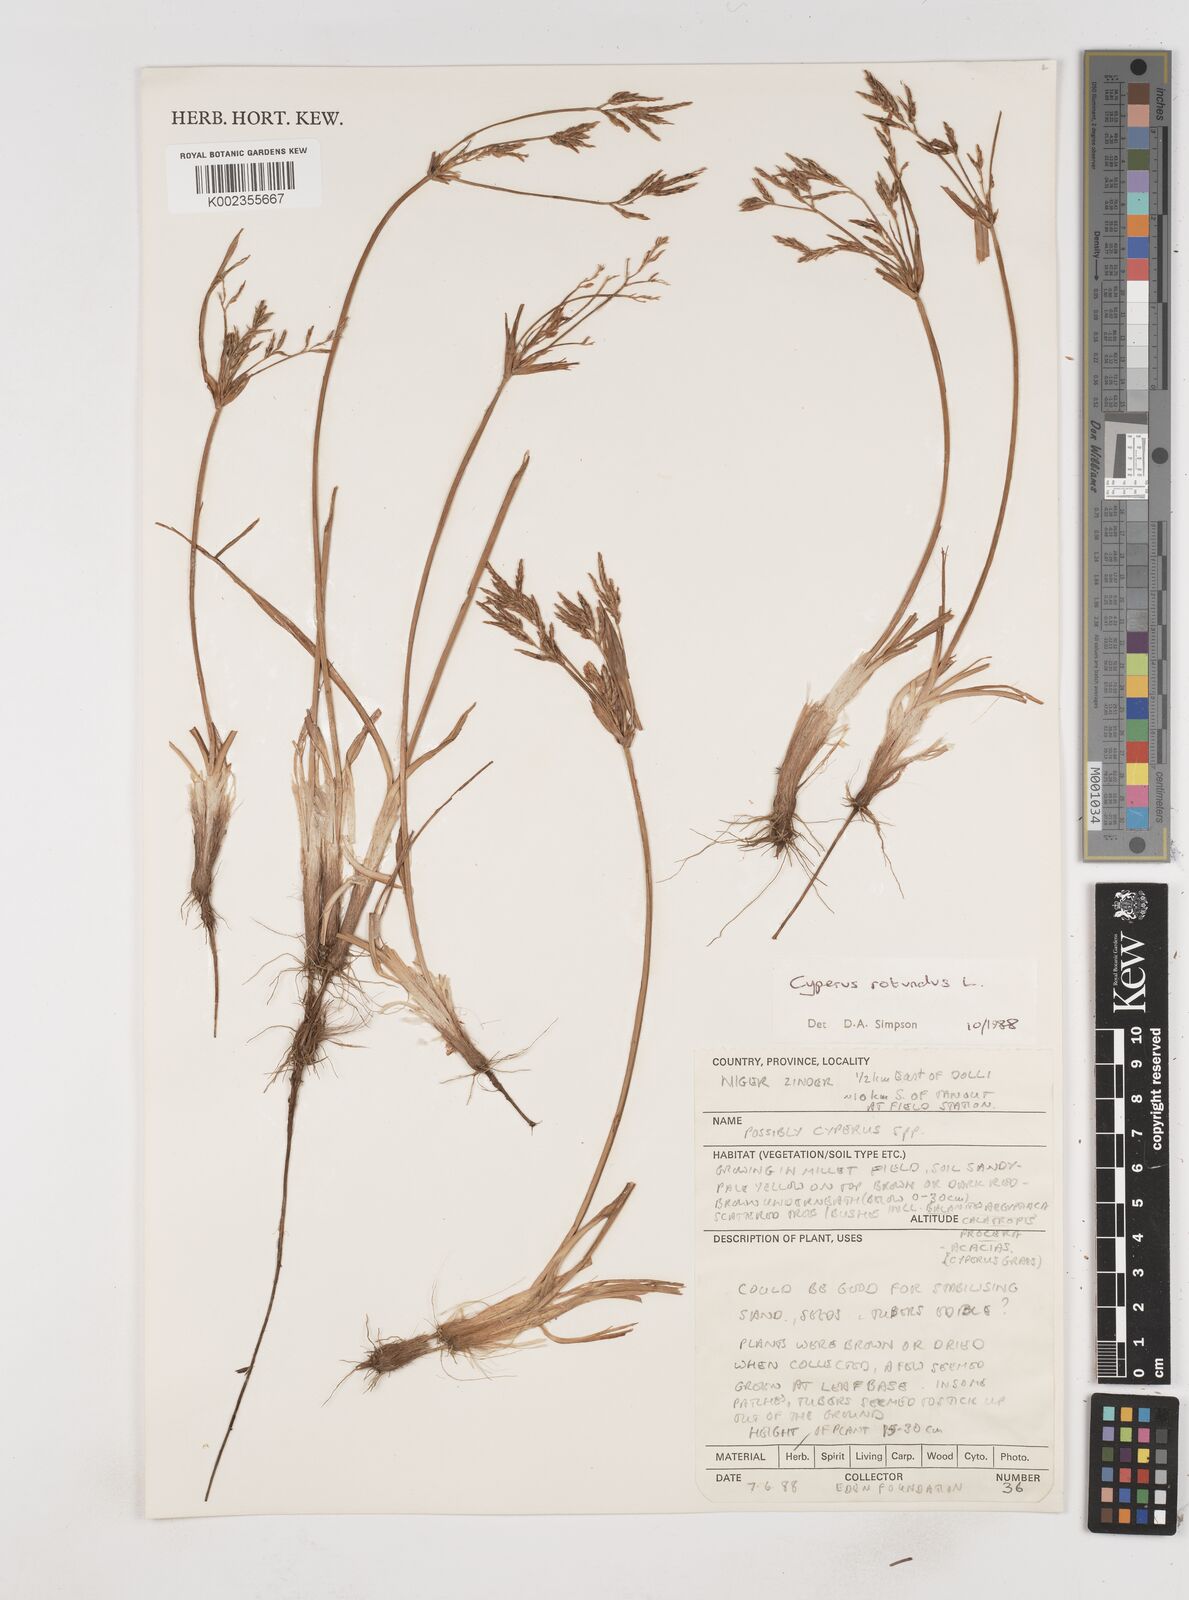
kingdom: Plantae
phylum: Tracheophyta
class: Liliopsida
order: Poales
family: Cyperaceae
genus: Cyperus
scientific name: Cyperus rotundus
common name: Nutgrass
